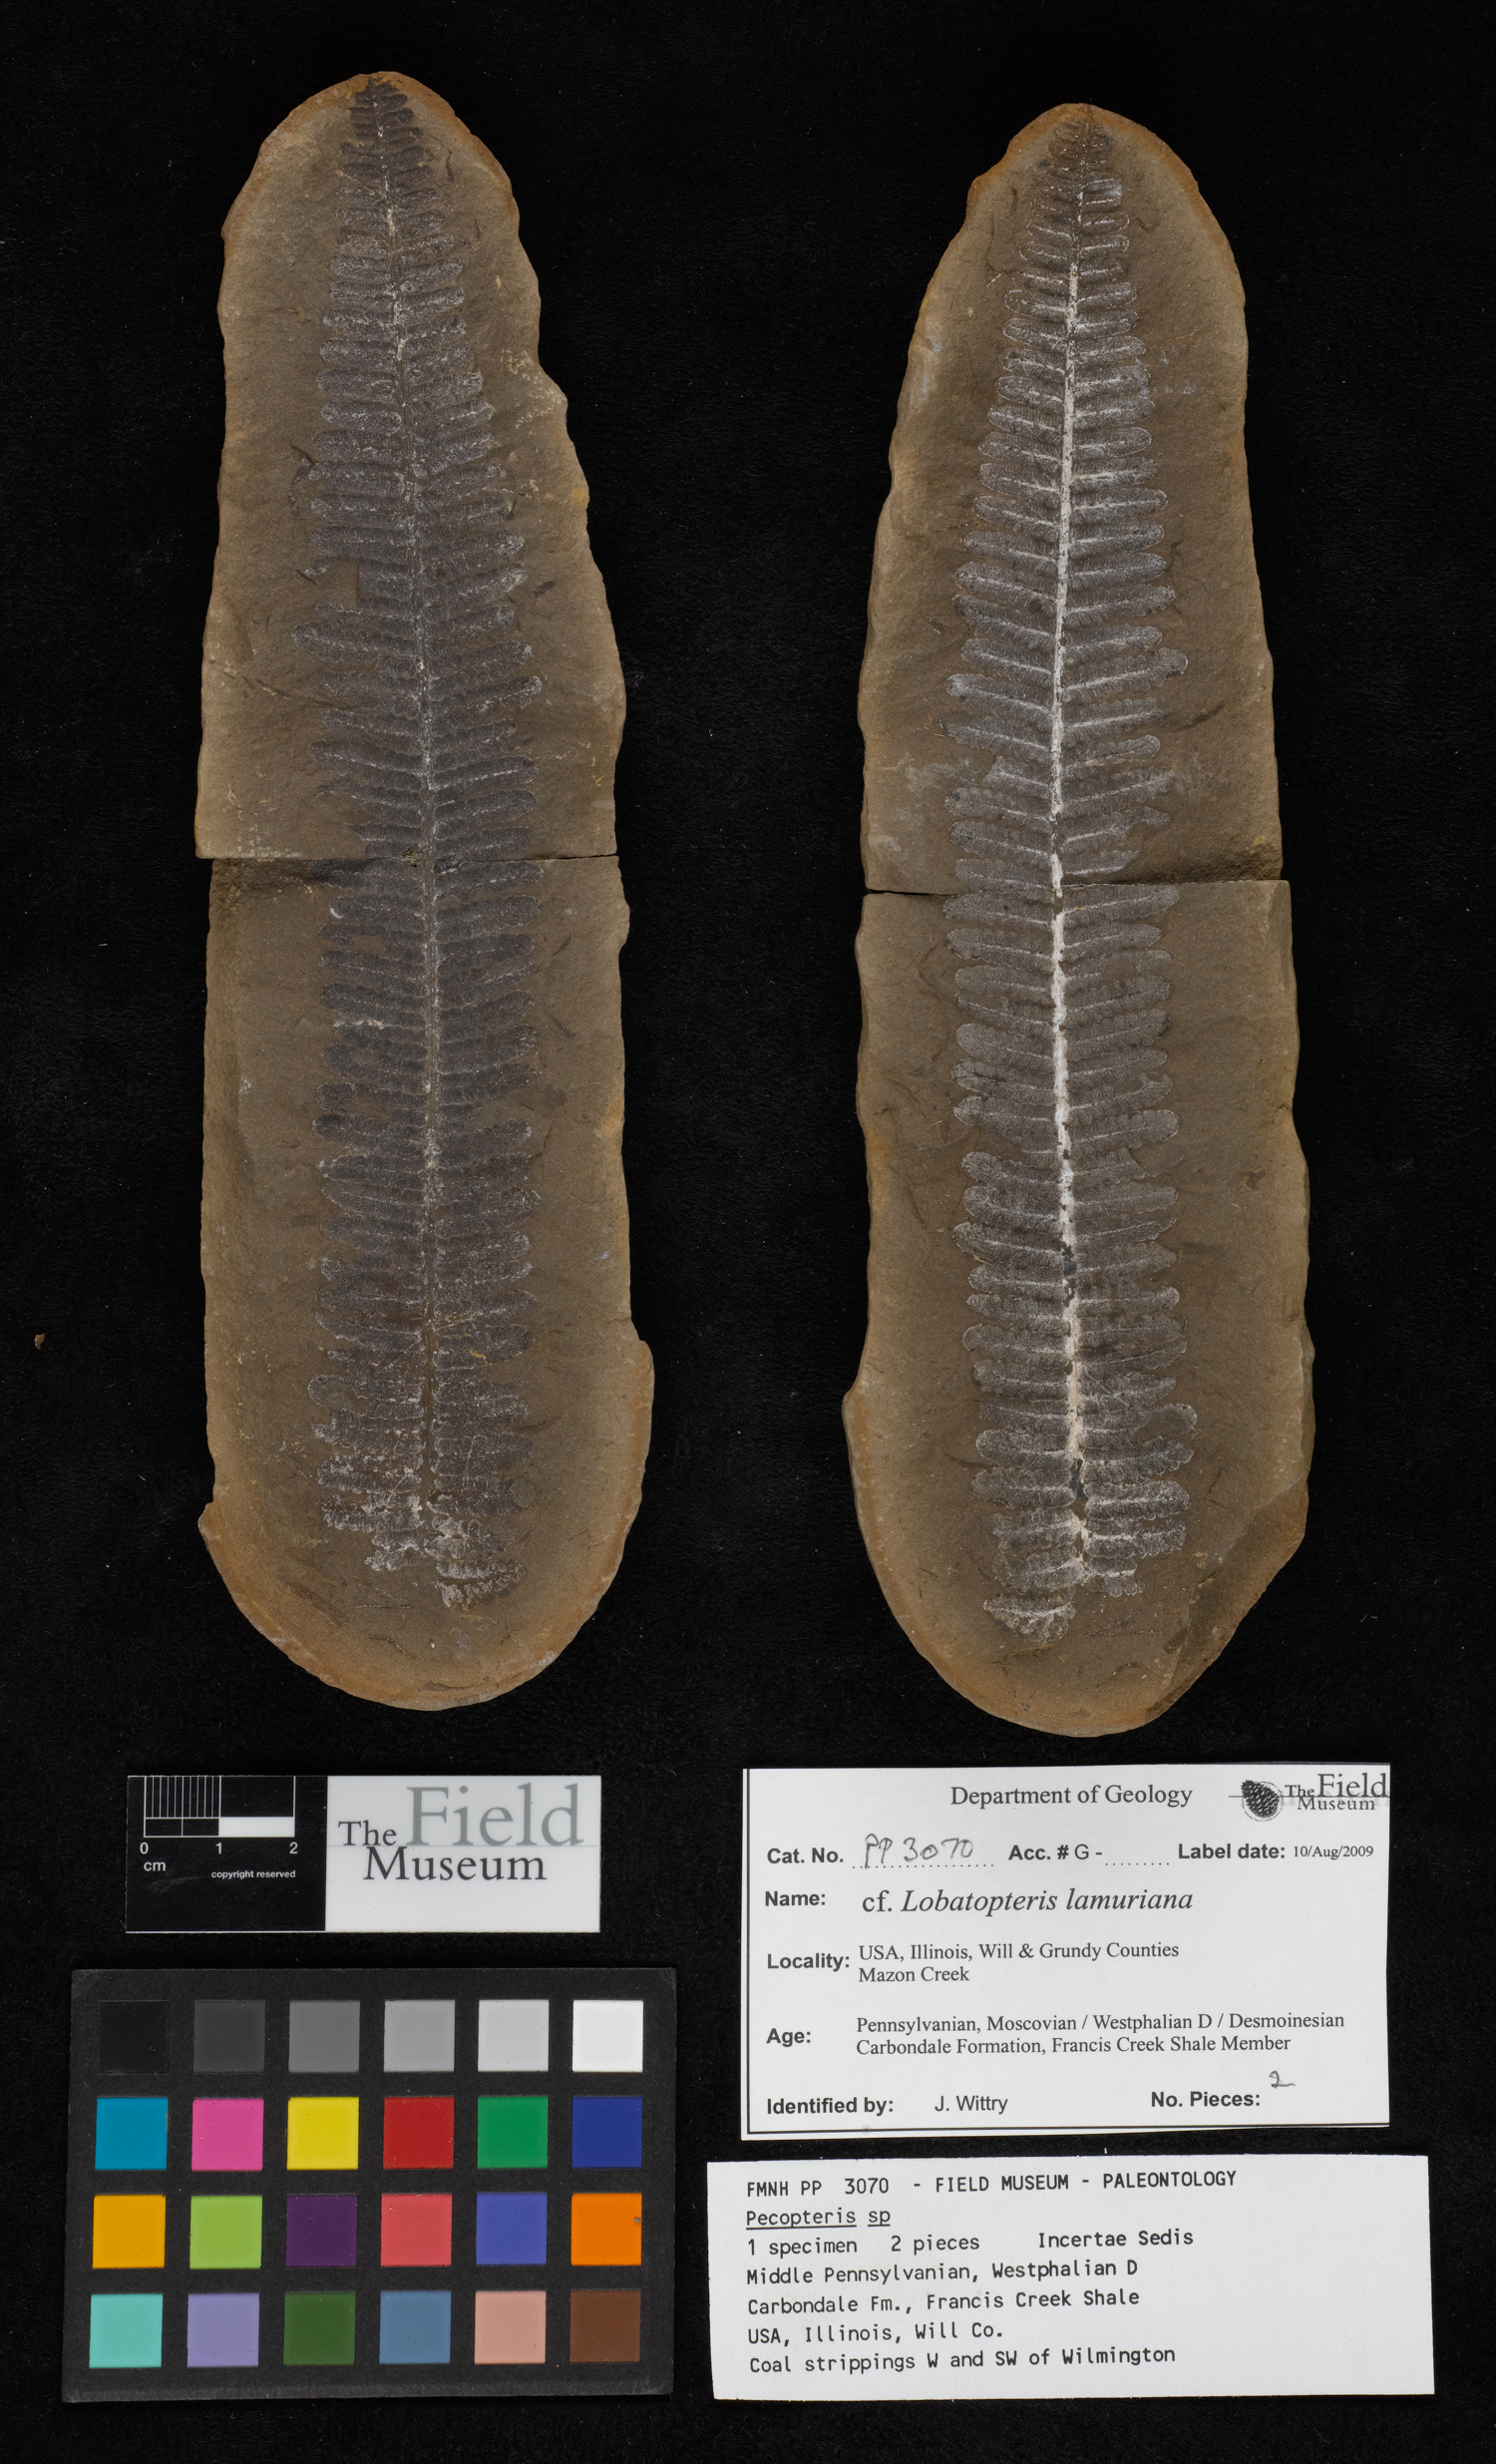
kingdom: Plantae
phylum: Tracheophyta
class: Polypodiopsida
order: Marattiales
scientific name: Marattiales
